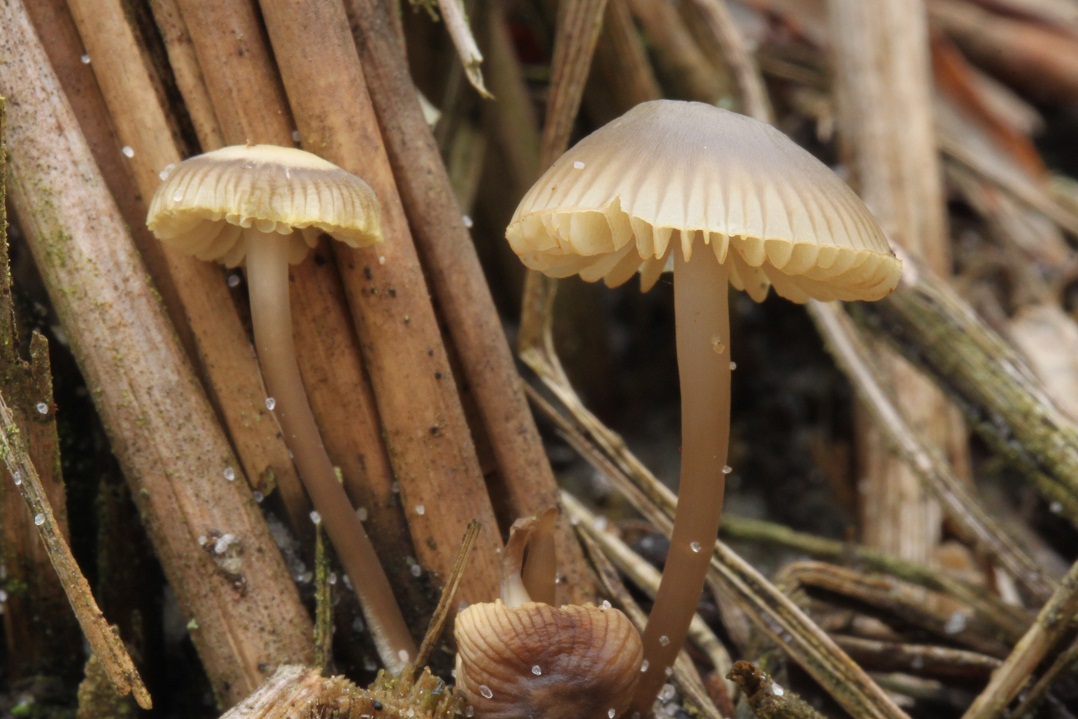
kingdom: Fungi
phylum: Basidiomycota
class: Agaricomycetes
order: Agaricales
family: Mycenaceae
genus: Mycena
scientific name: Mycena chlorantha
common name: klit-huesvamp
